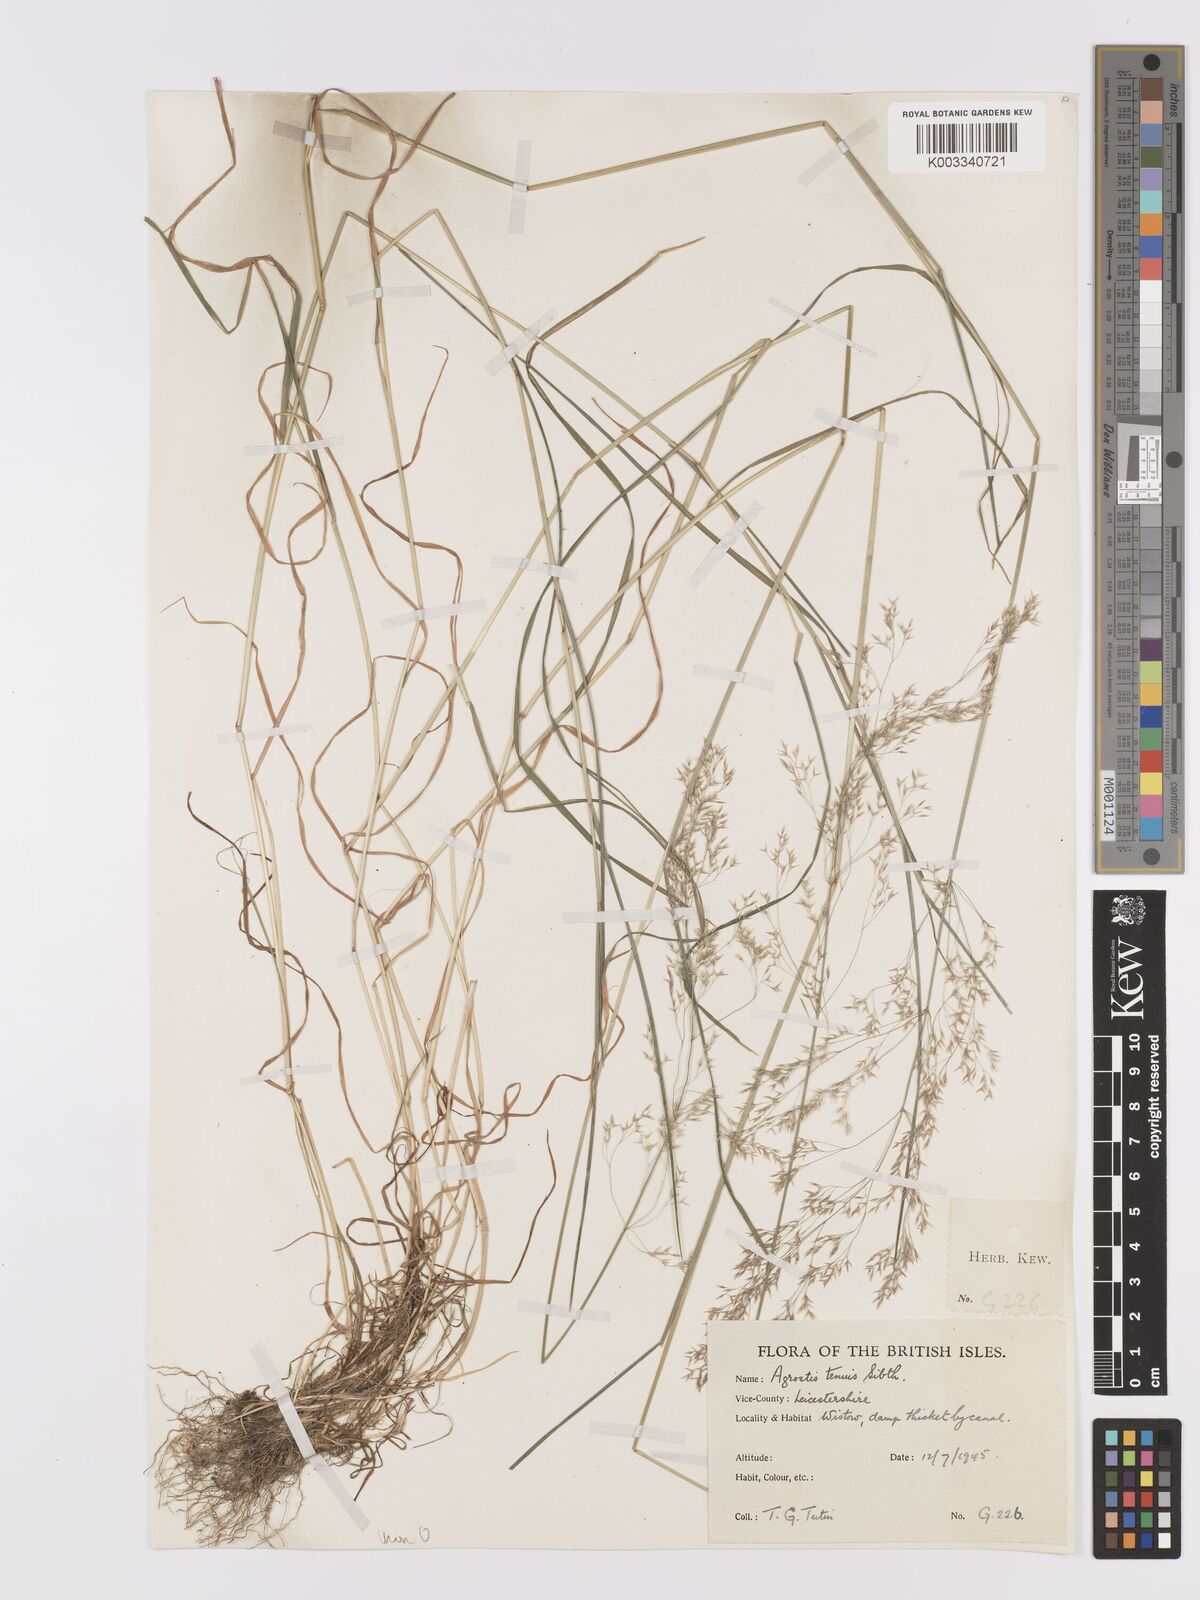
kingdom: Plantae
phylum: Tracheophyta
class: Liliopsida
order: Poales
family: Poaceae
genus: Agrostis
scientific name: Agrostis capillaris
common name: Colonial bentgrass
